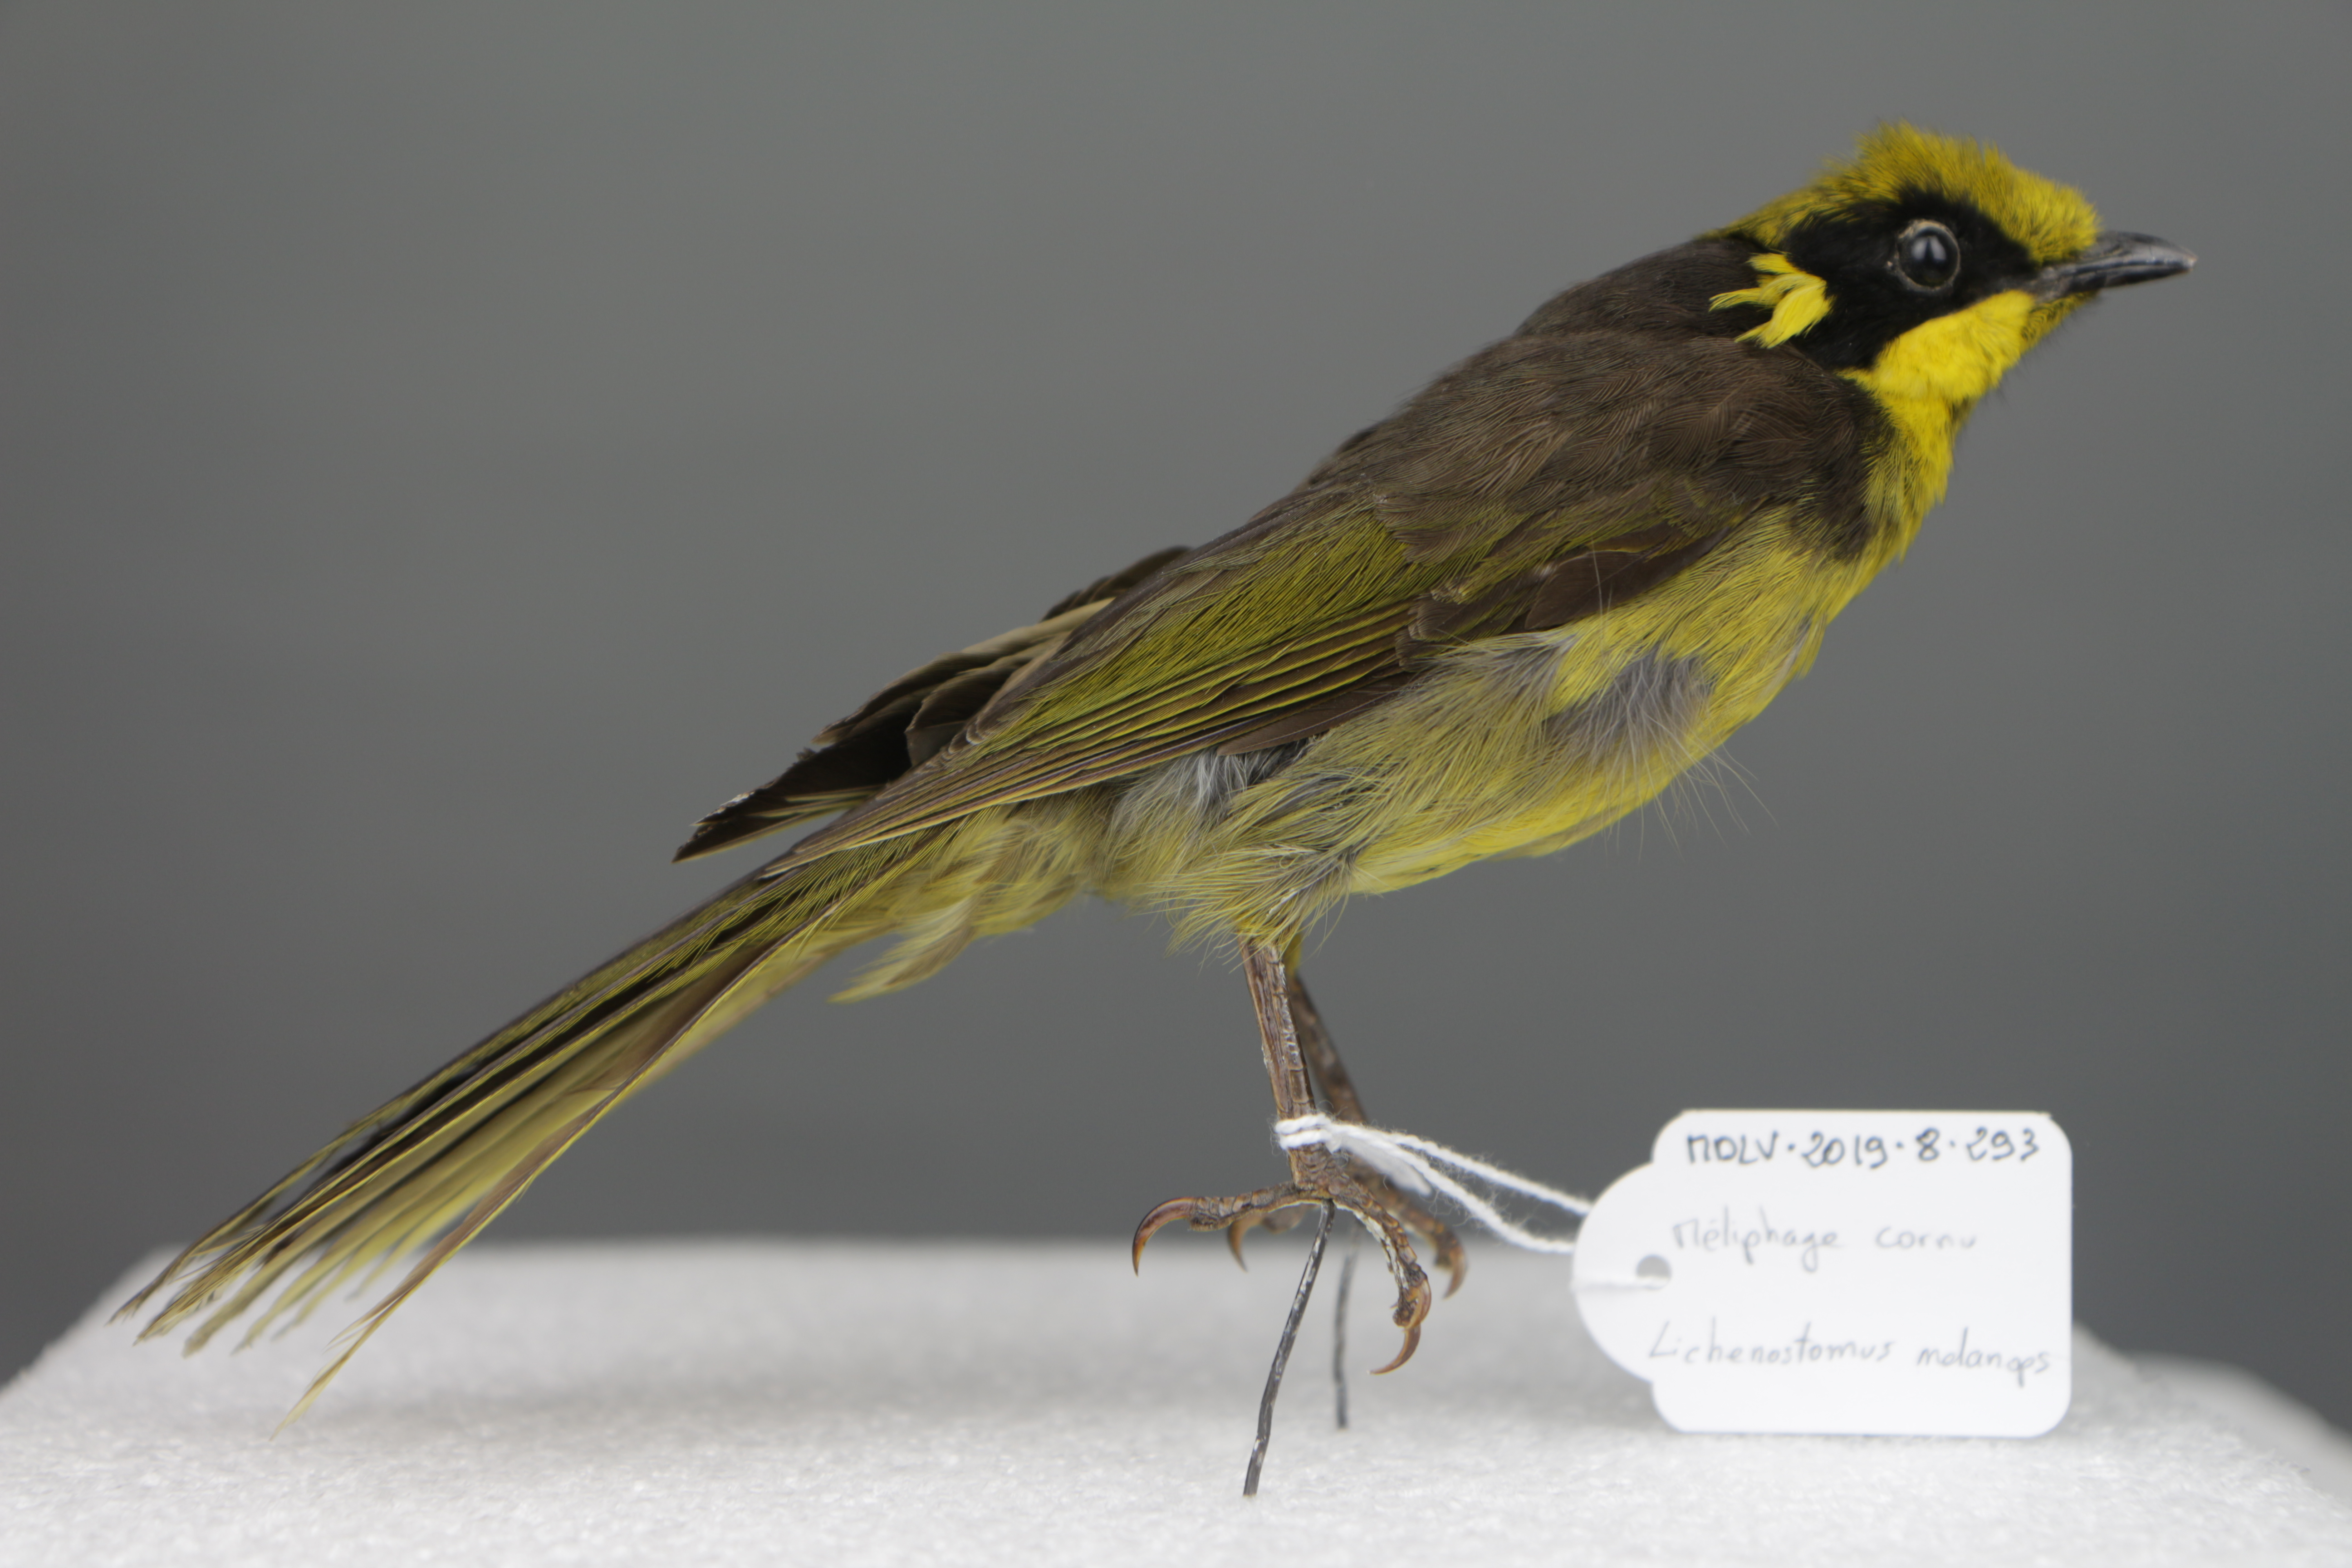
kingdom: Animalia
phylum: Chordata
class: Aves
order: Passeriformes
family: Meliphagidae
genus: Lichenostomus
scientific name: Lichenostomus melanops
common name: Yellow-tufted honeyeater
